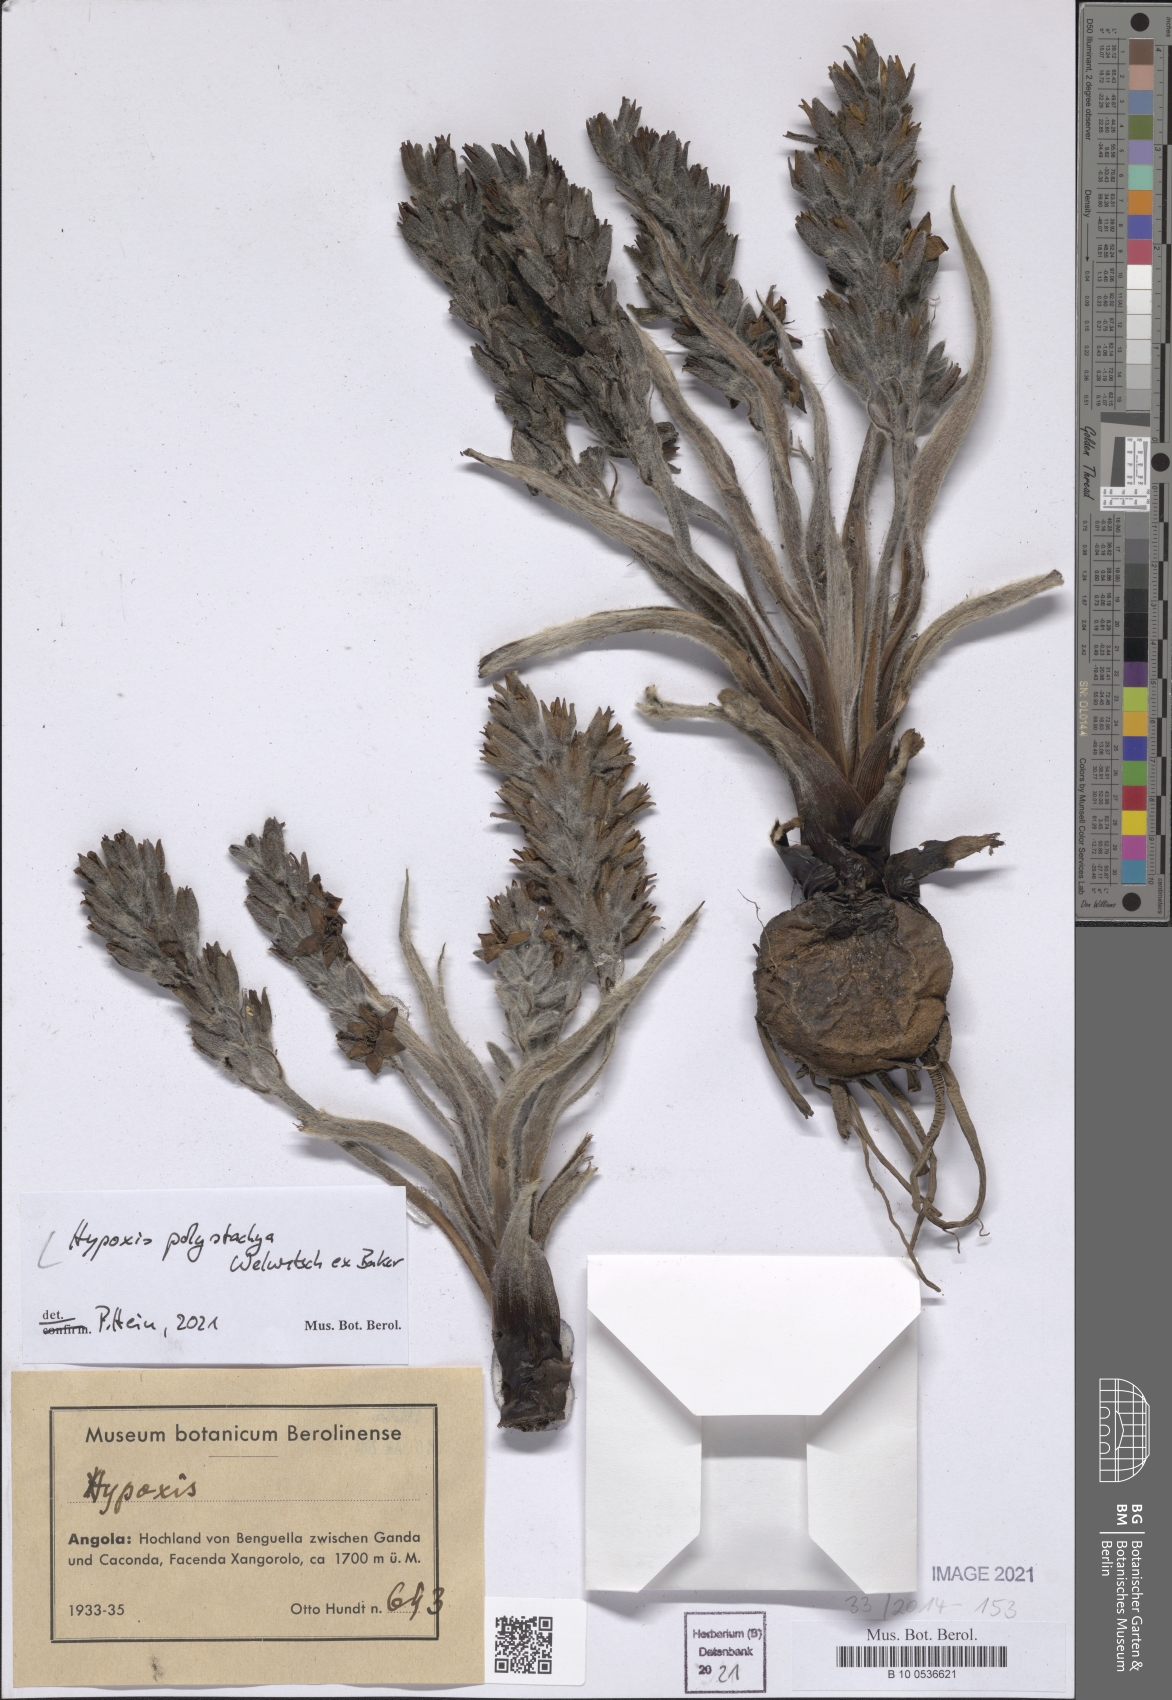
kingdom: Plantae
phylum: Tracheophyta
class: Liliopsida
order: Asparagales
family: Hypoxidaceae
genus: Hypoxis
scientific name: Hypoxis polystachya
